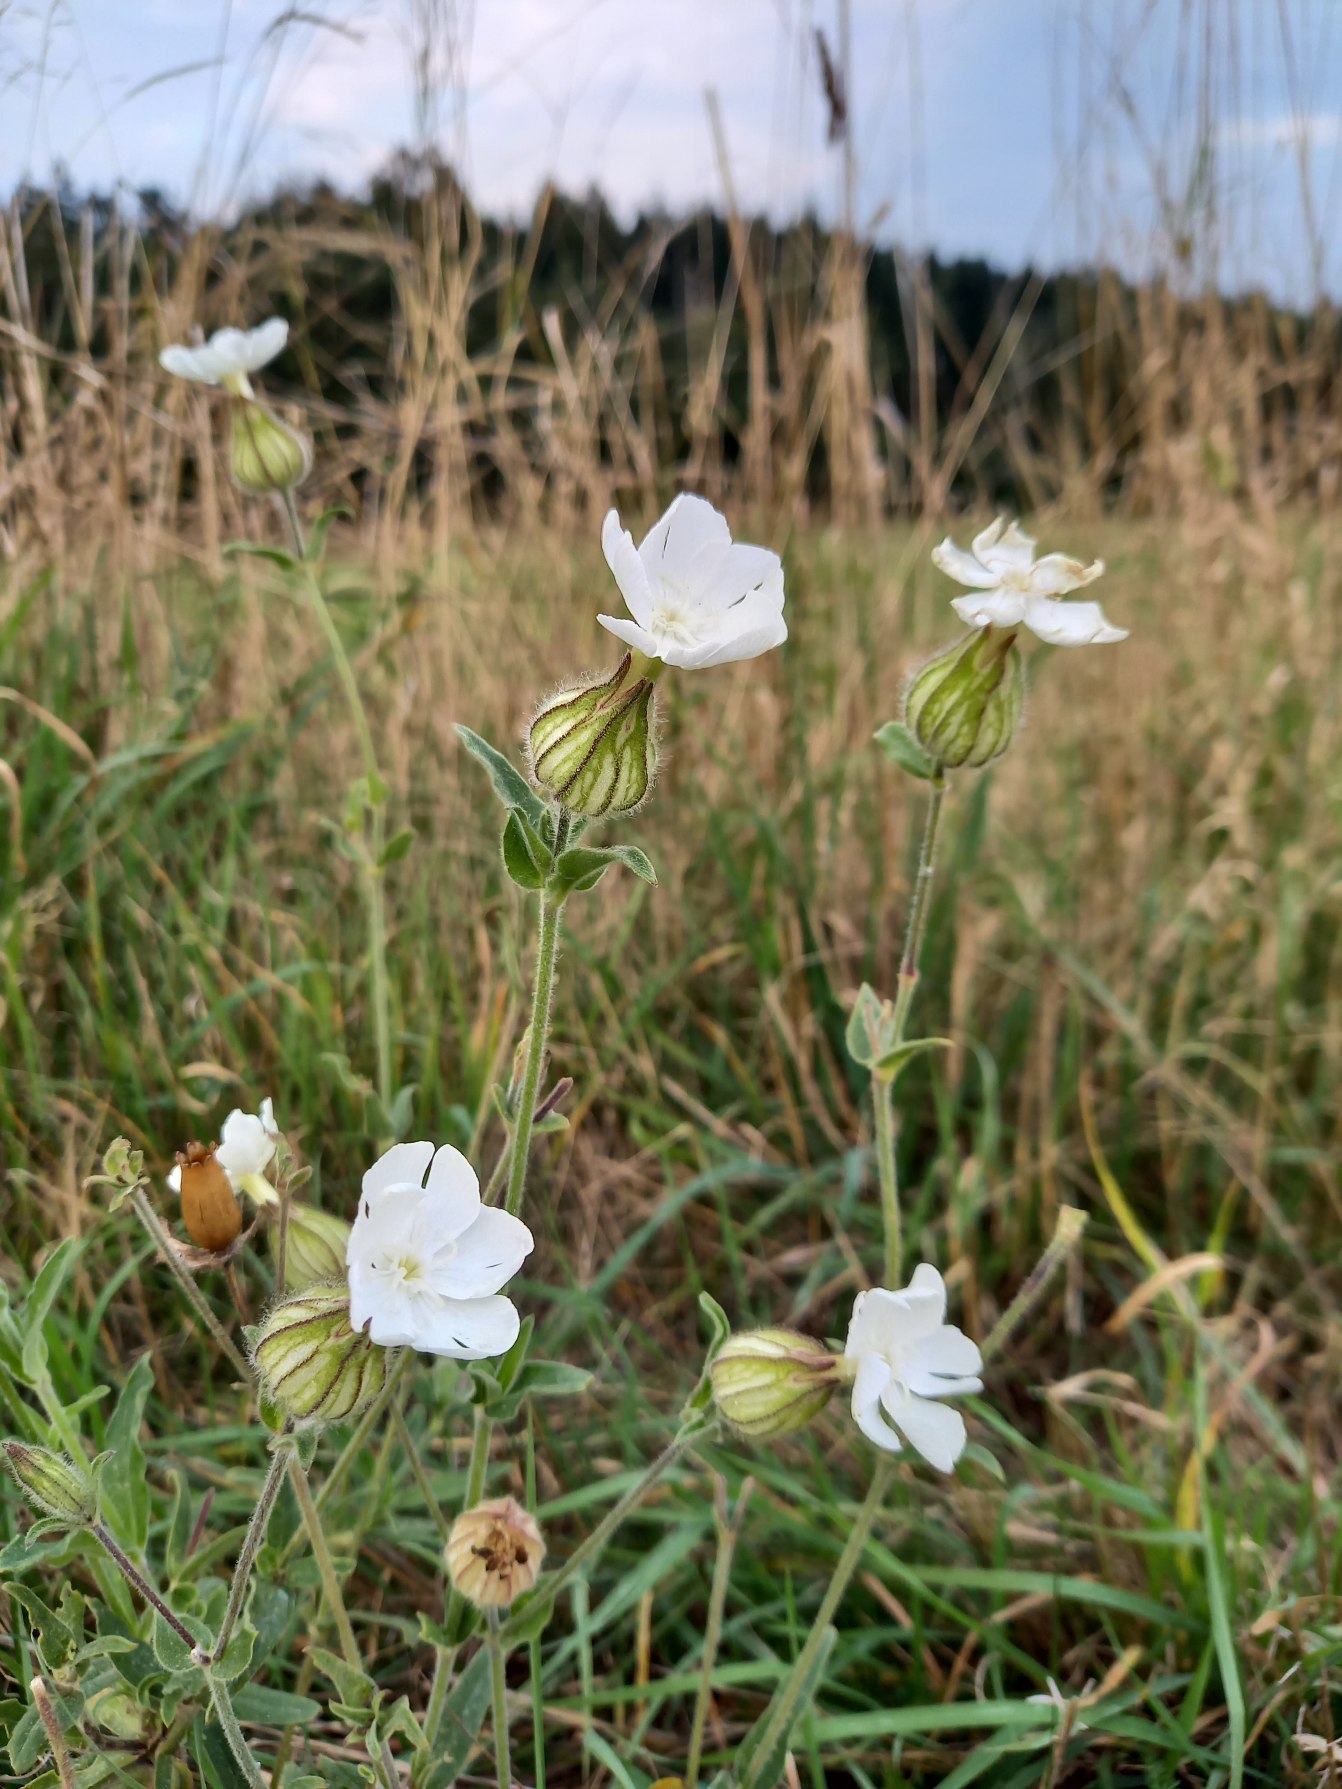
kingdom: Plantae
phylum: Tracheophyta
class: Magnoliopsida
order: Caryophyllales
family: Caryophyllaceae
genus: Silene
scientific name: Silene latifolia
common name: Aftenpragtstjerne
